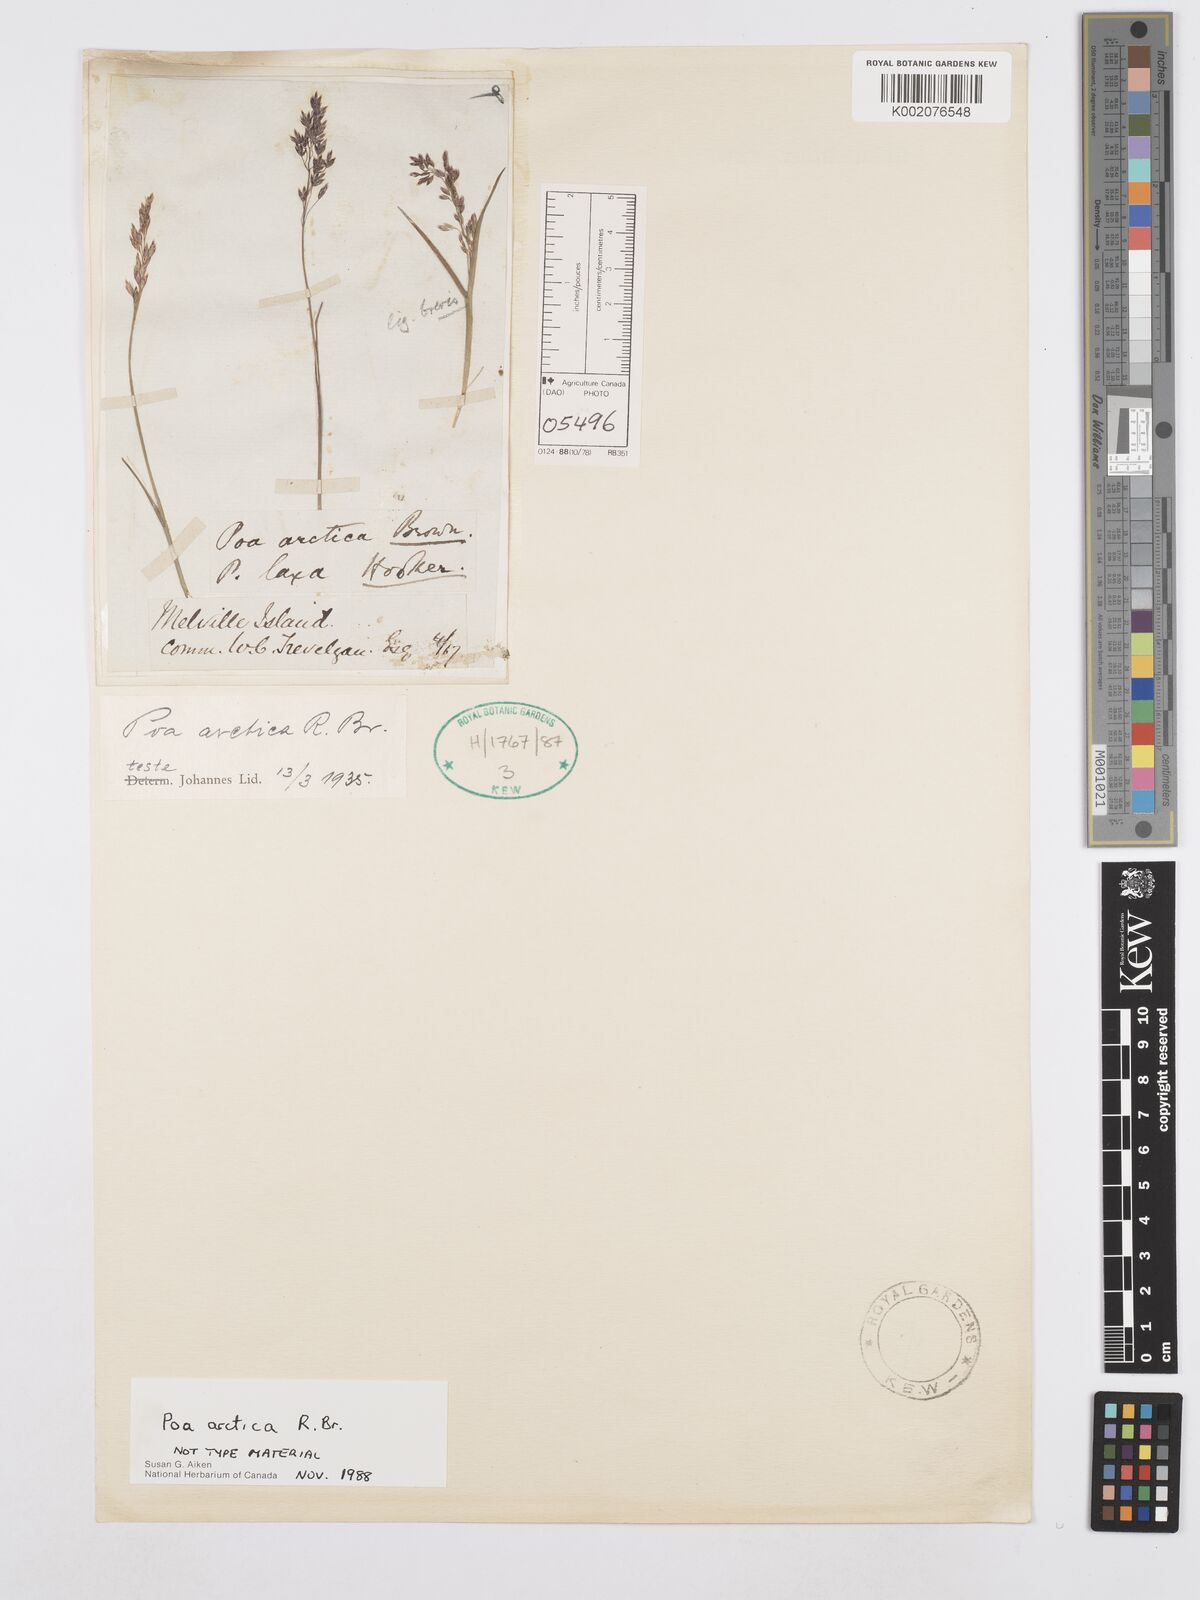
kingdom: Plantae
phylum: Tracheophyta
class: Liliopsida
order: Poales
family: Poaceae
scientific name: Poaceae
